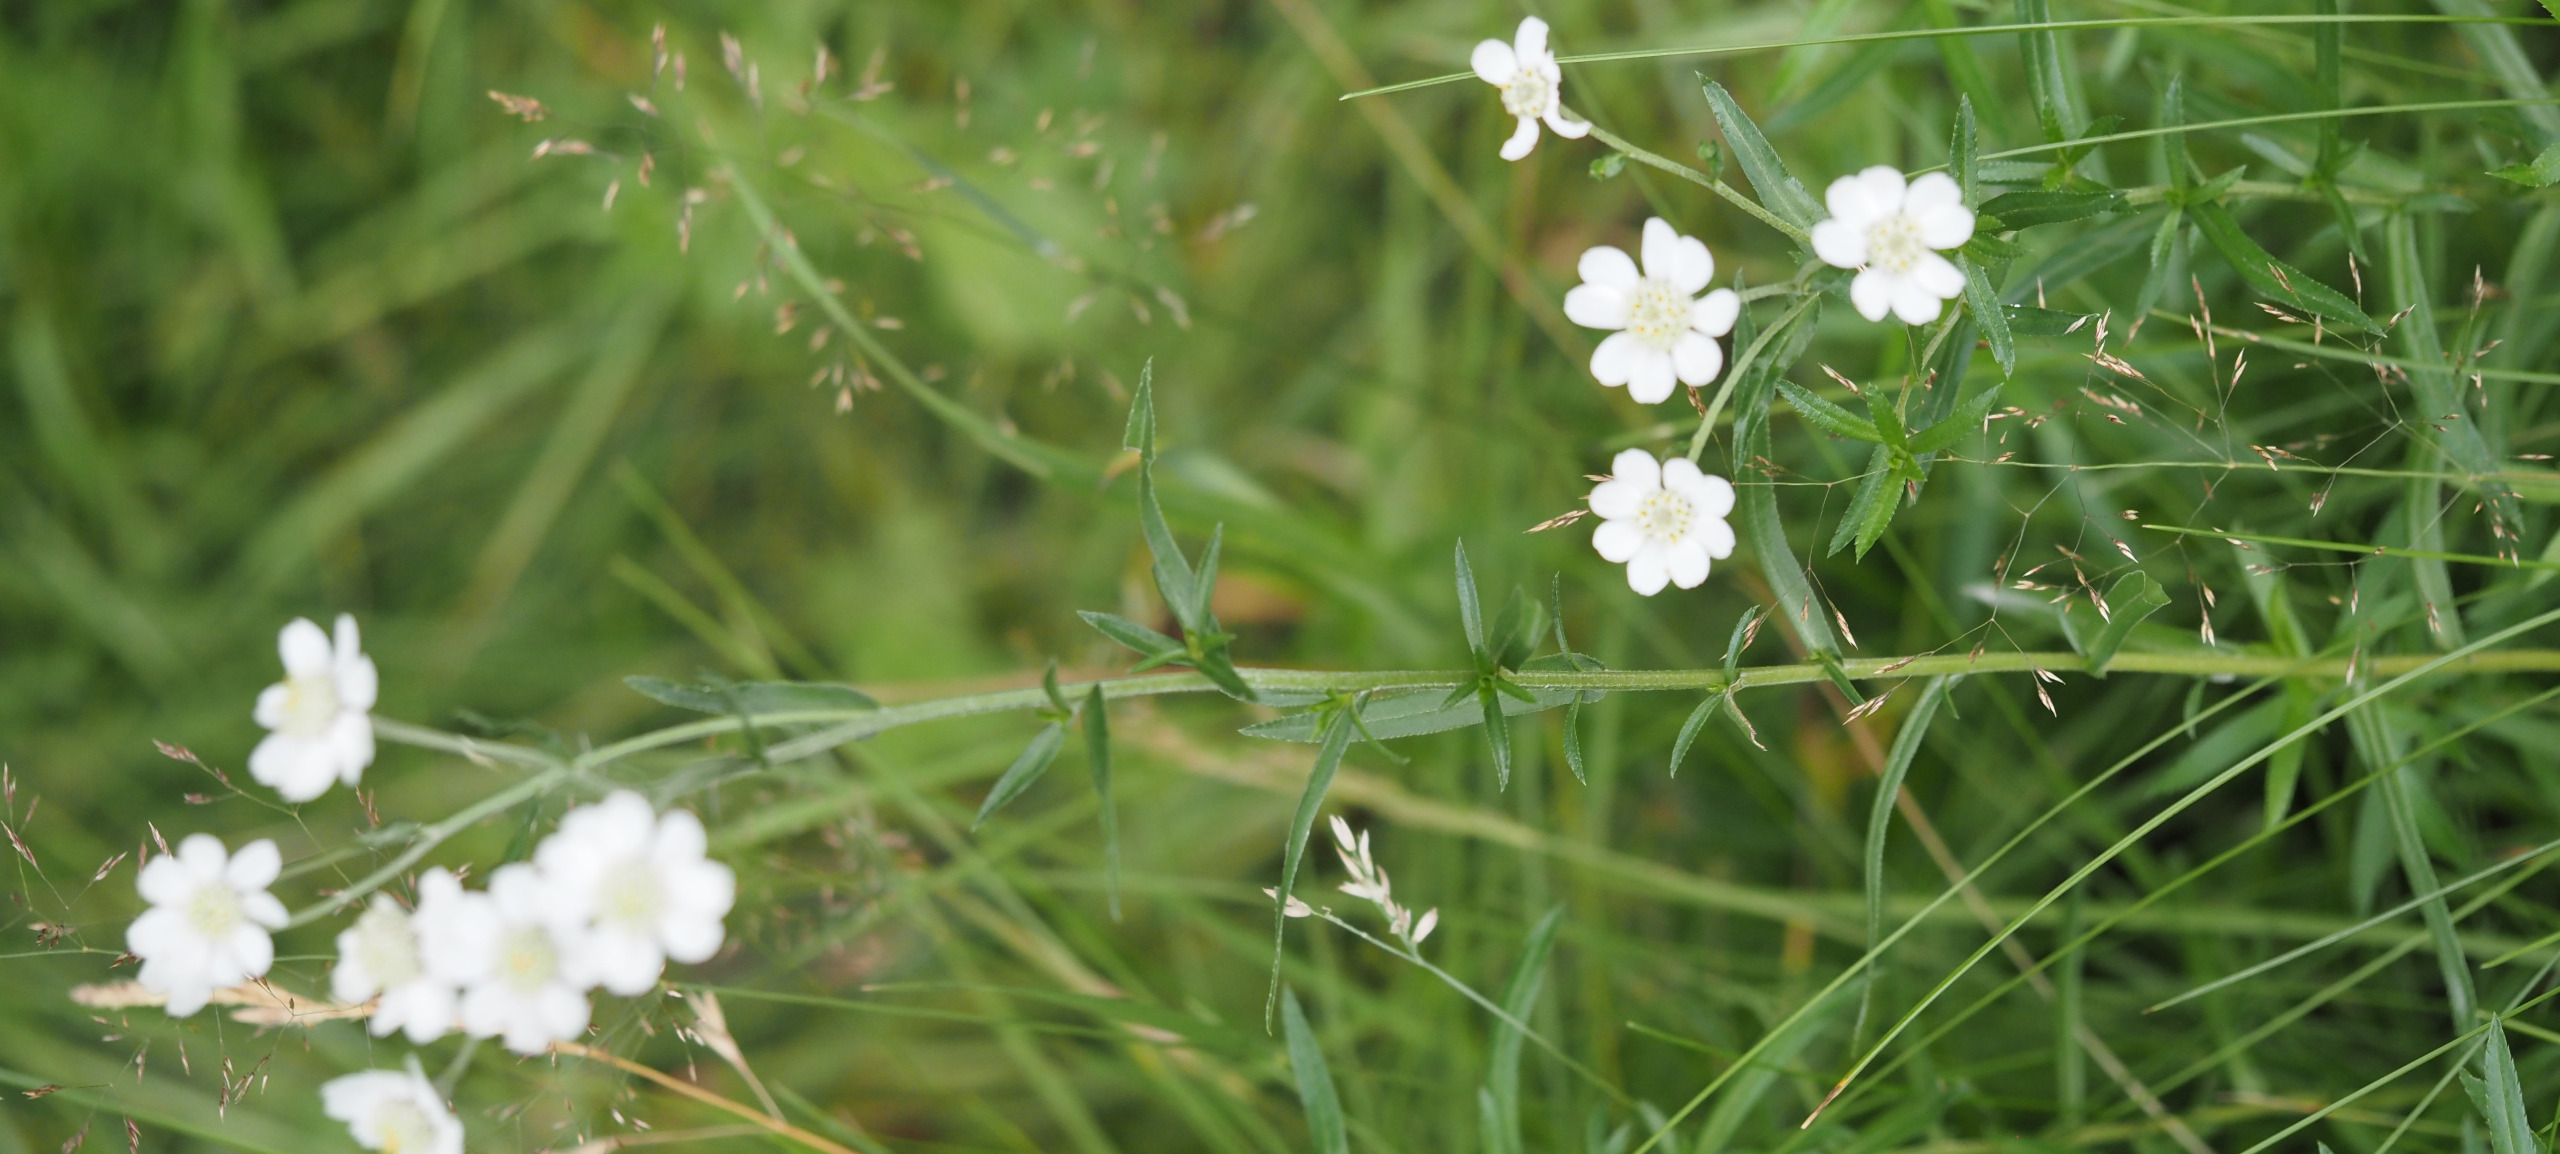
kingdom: Plantae
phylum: Tracheophyta
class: Magnoliopsida
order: Asterales
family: Asteraceae
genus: Achillea
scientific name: Achillea ptarmica
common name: Nyse-røllike
